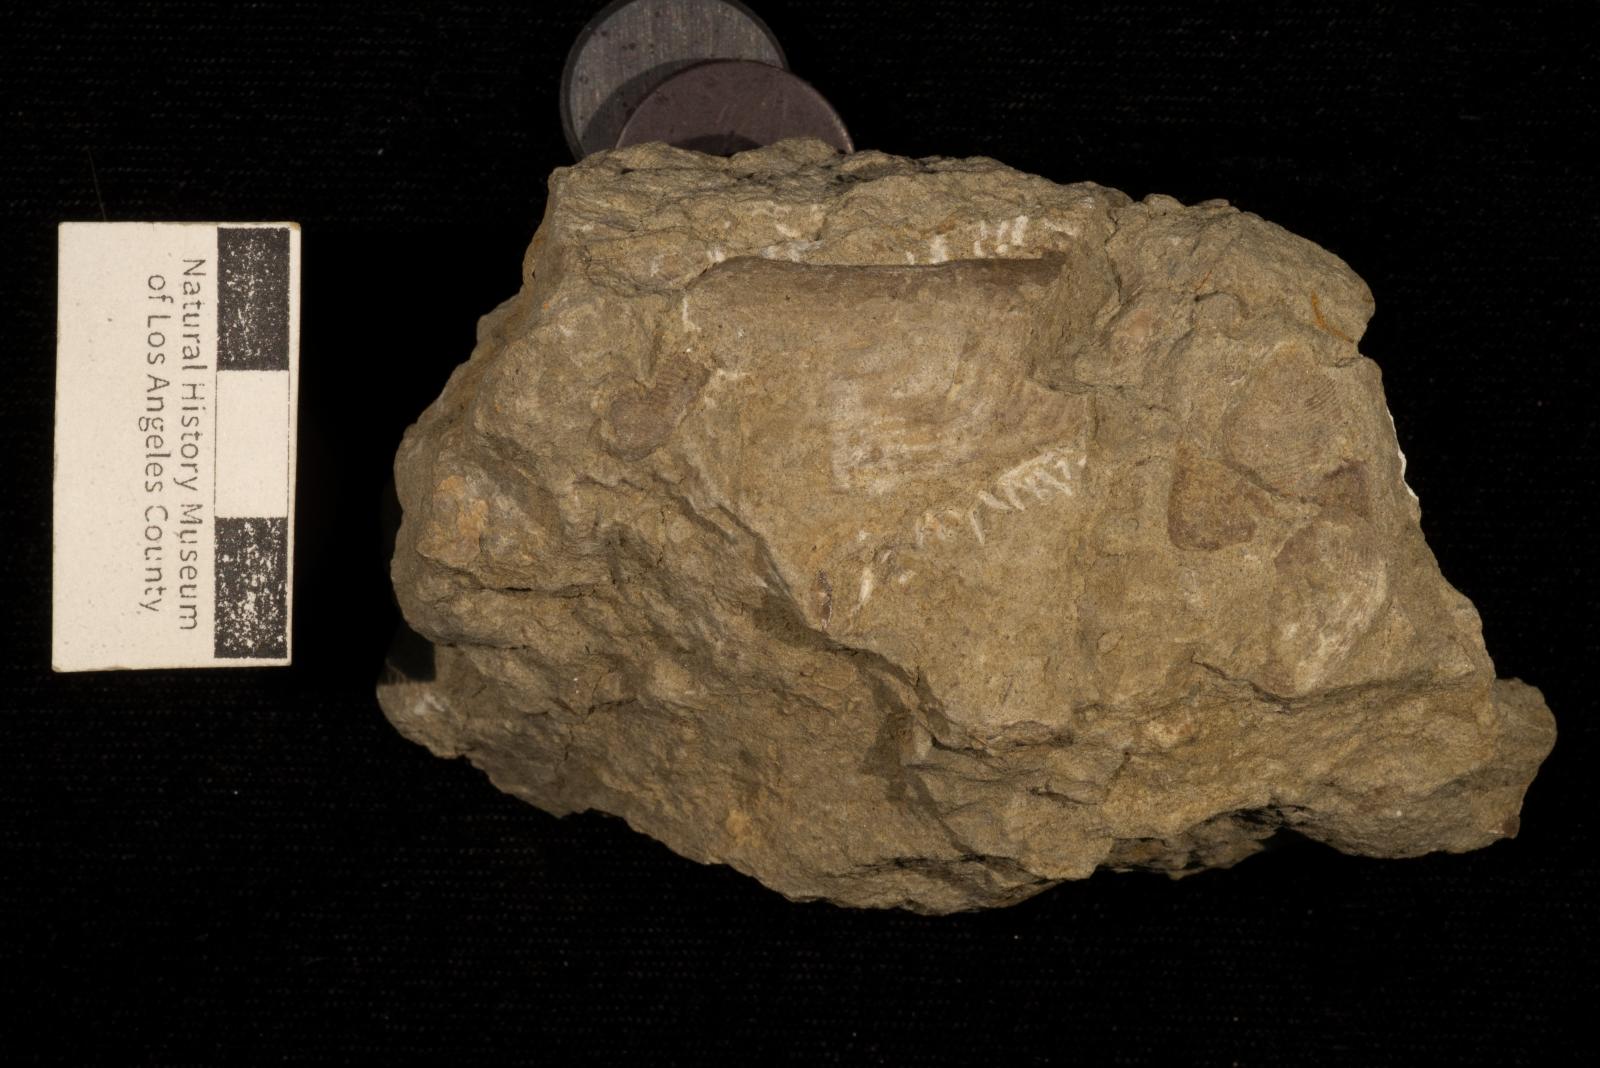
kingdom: Animalia
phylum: Mollusca
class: Bivalvia
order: Unionida
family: Iridinidae
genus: Leptosolen
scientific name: Leptosolen
